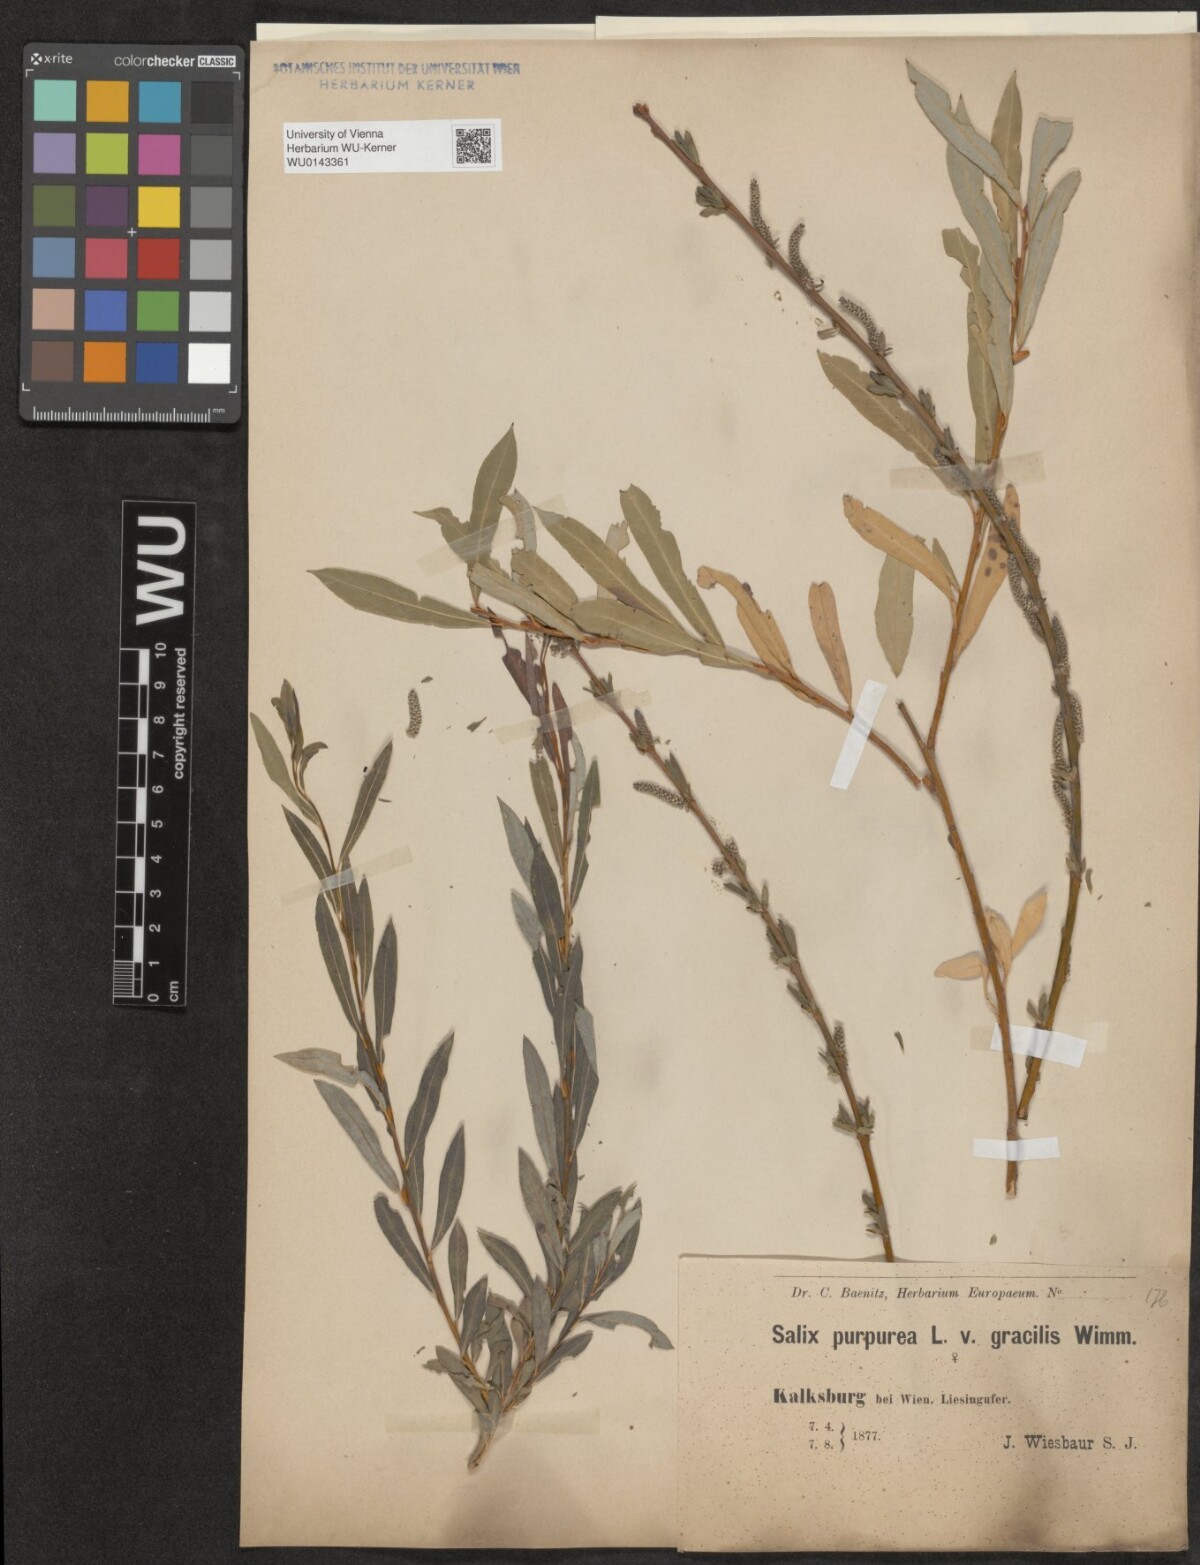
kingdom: Plantae
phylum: Tracheophyta
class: Magnoliopsida
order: Malpighiales
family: Salicaceae
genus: Salix
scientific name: Salix purpurea
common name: Purple willow
